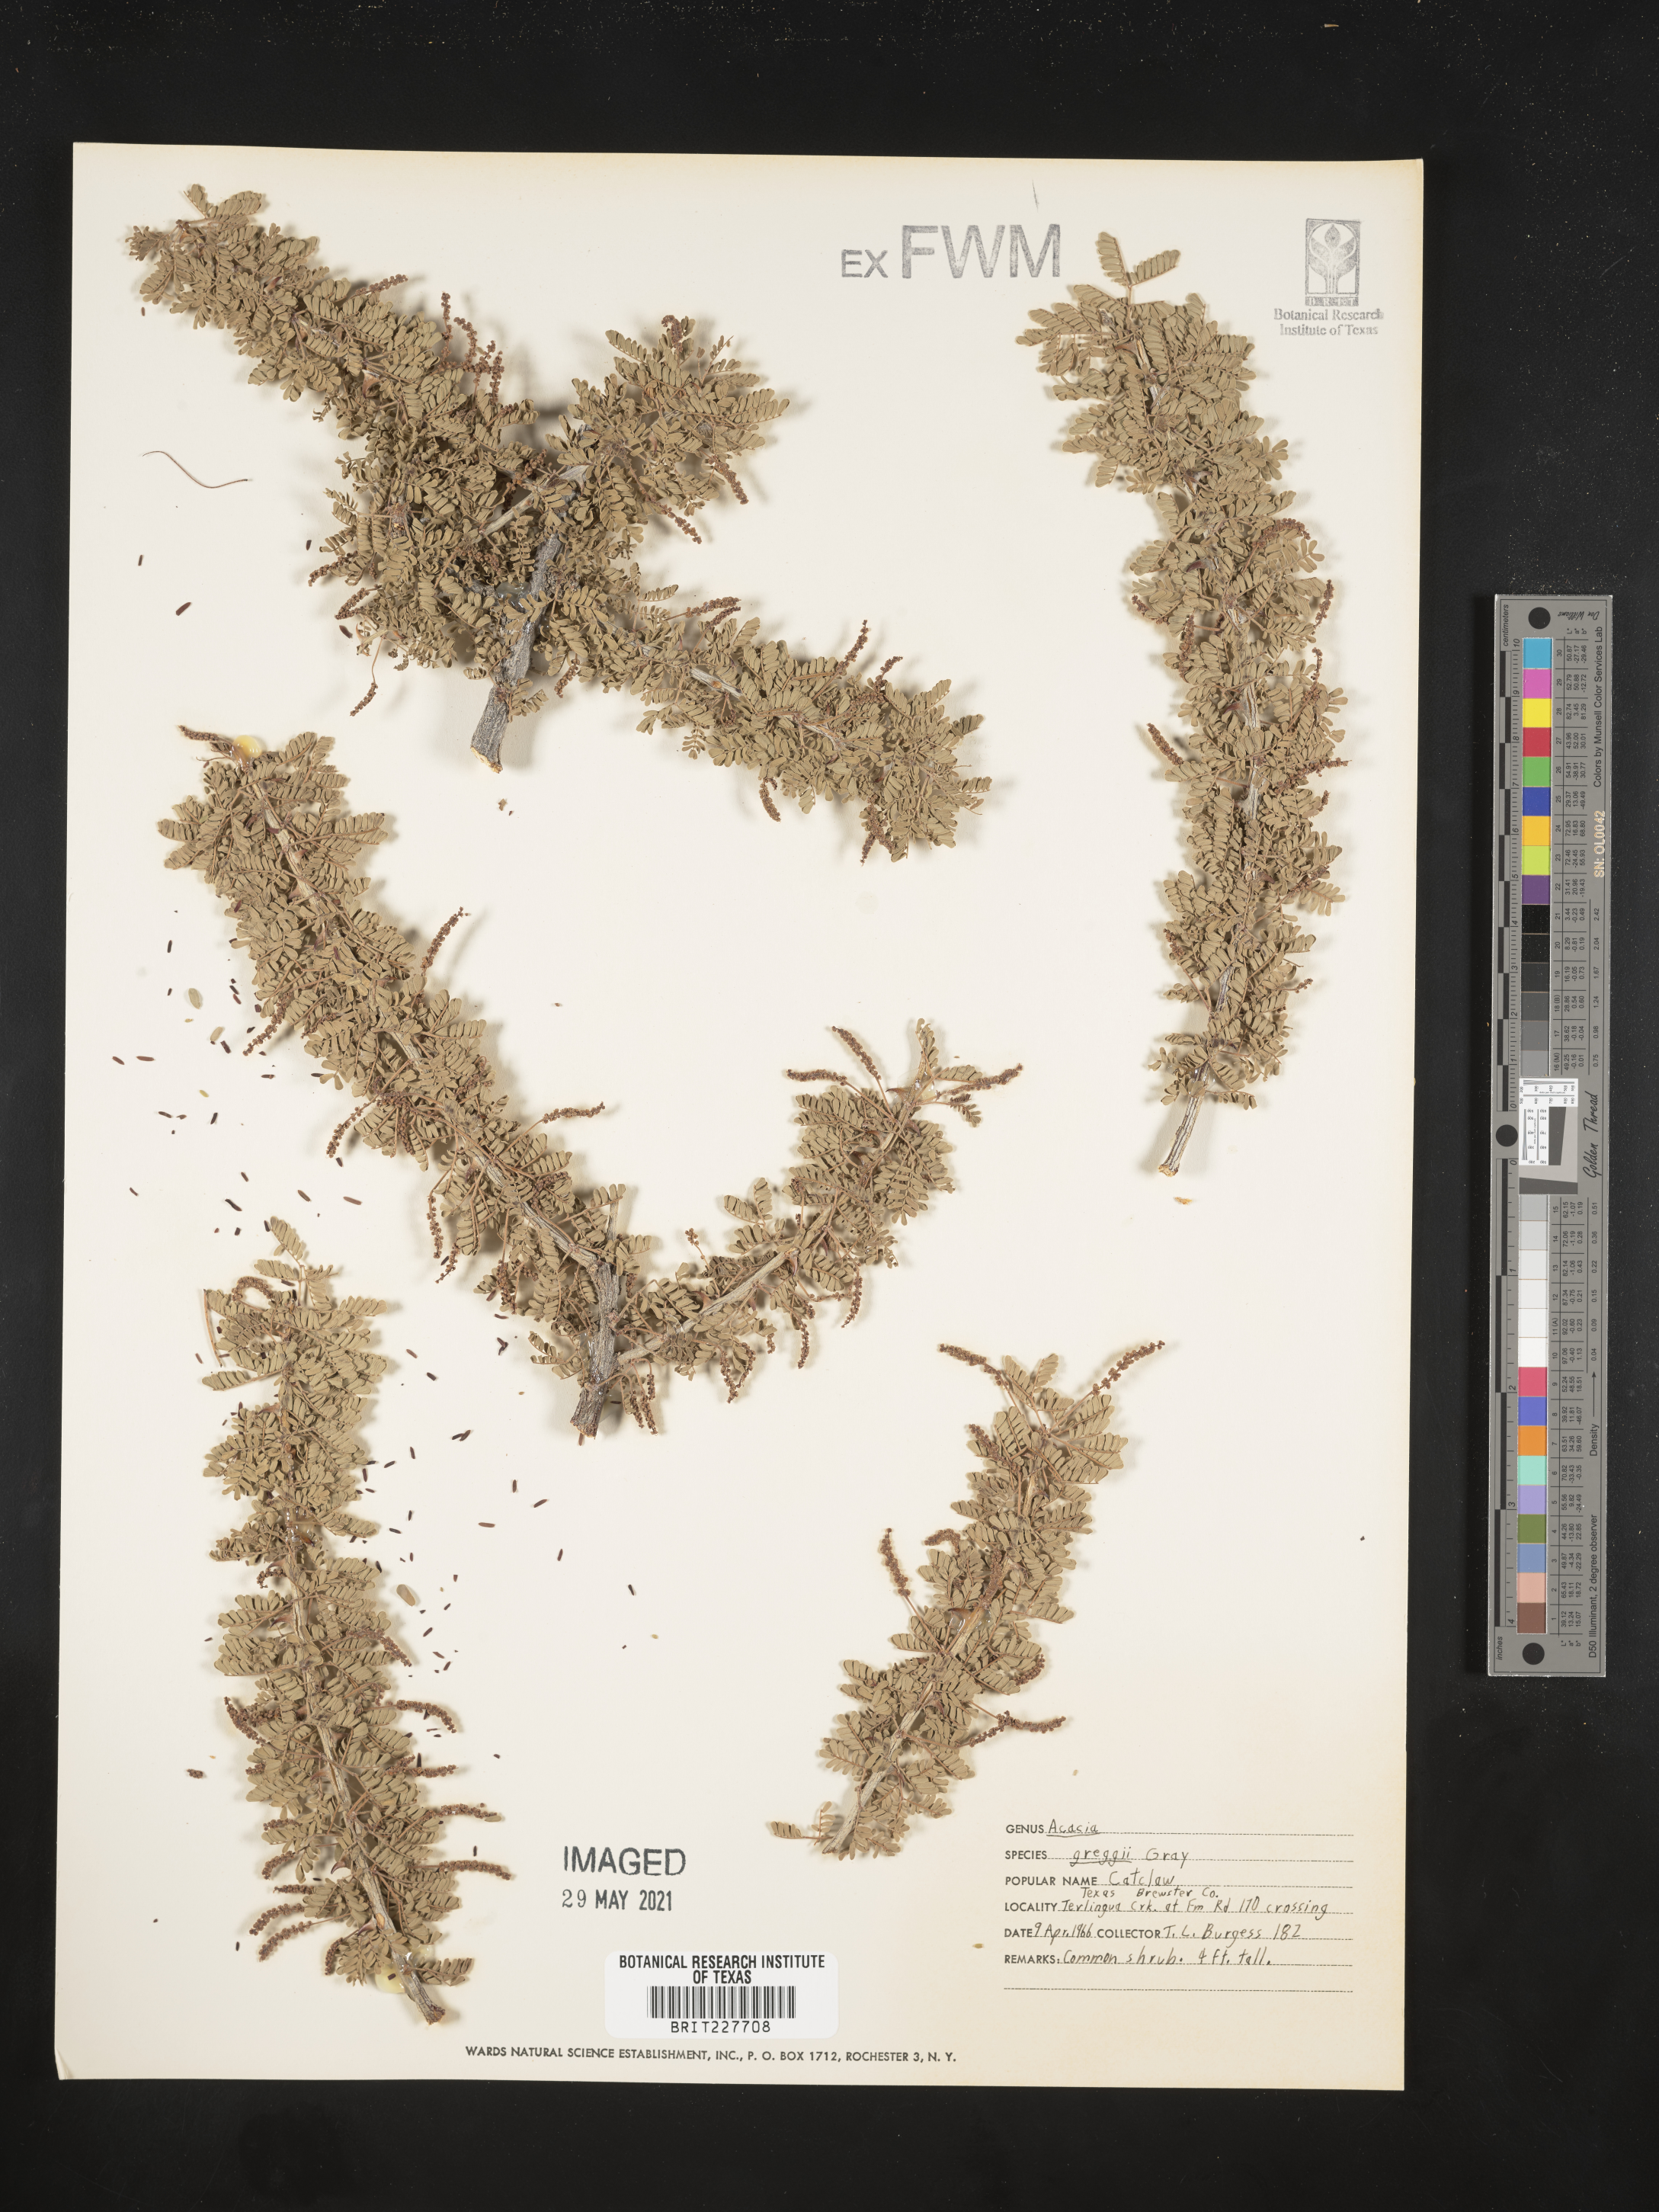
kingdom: Plantae
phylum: Tracheophyta
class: Magnoliopsida
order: Fabales
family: Fabaceae
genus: Senegalia
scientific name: Senegalia greggii
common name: Texas-mimosa
